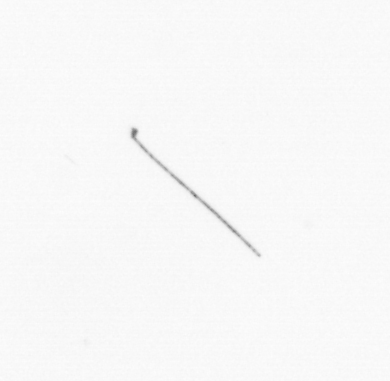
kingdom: Chromista
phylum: Ochrophyta
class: Bacillariophyceae
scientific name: Bacillariophyceae
